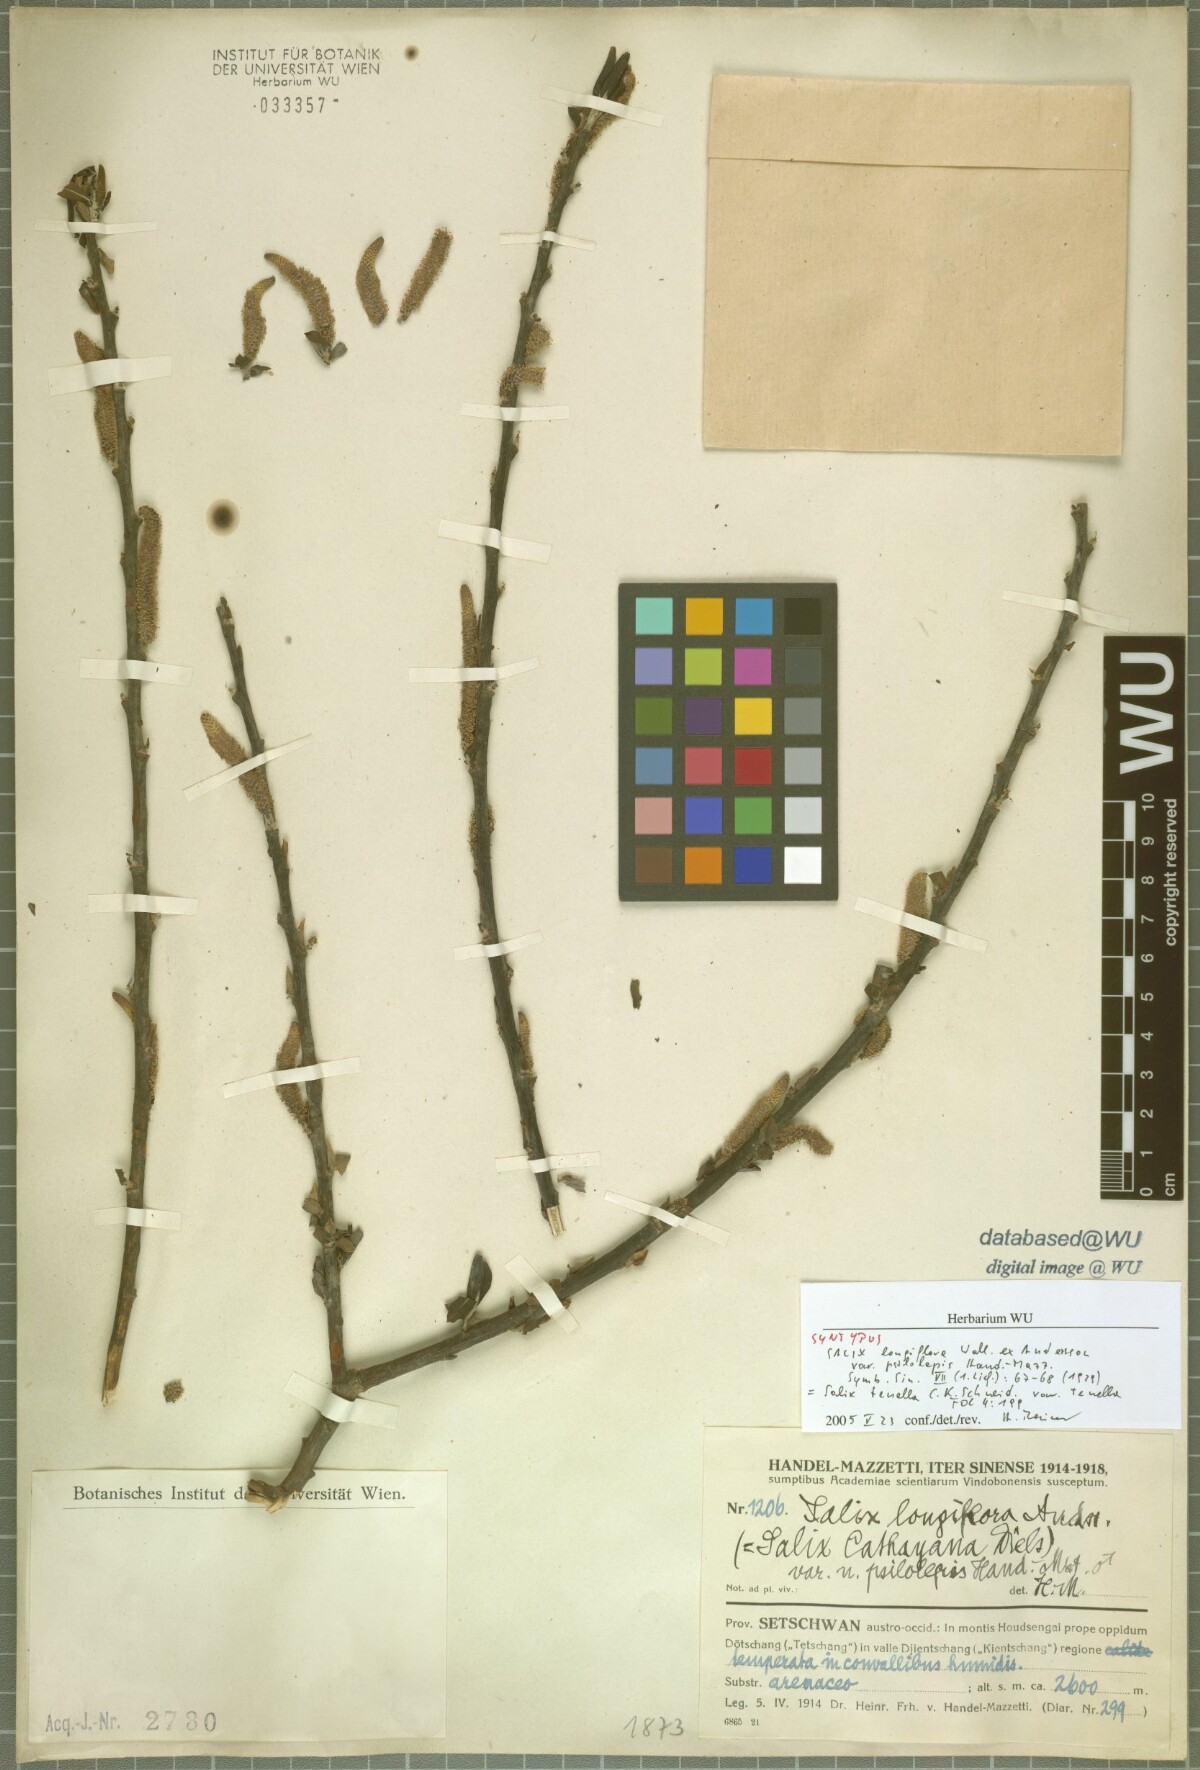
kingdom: Plantae
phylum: Tracheophyta
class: Magnoliopsida
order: Malpighiales
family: Salicaceae
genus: Salix
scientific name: Salix longiflora
